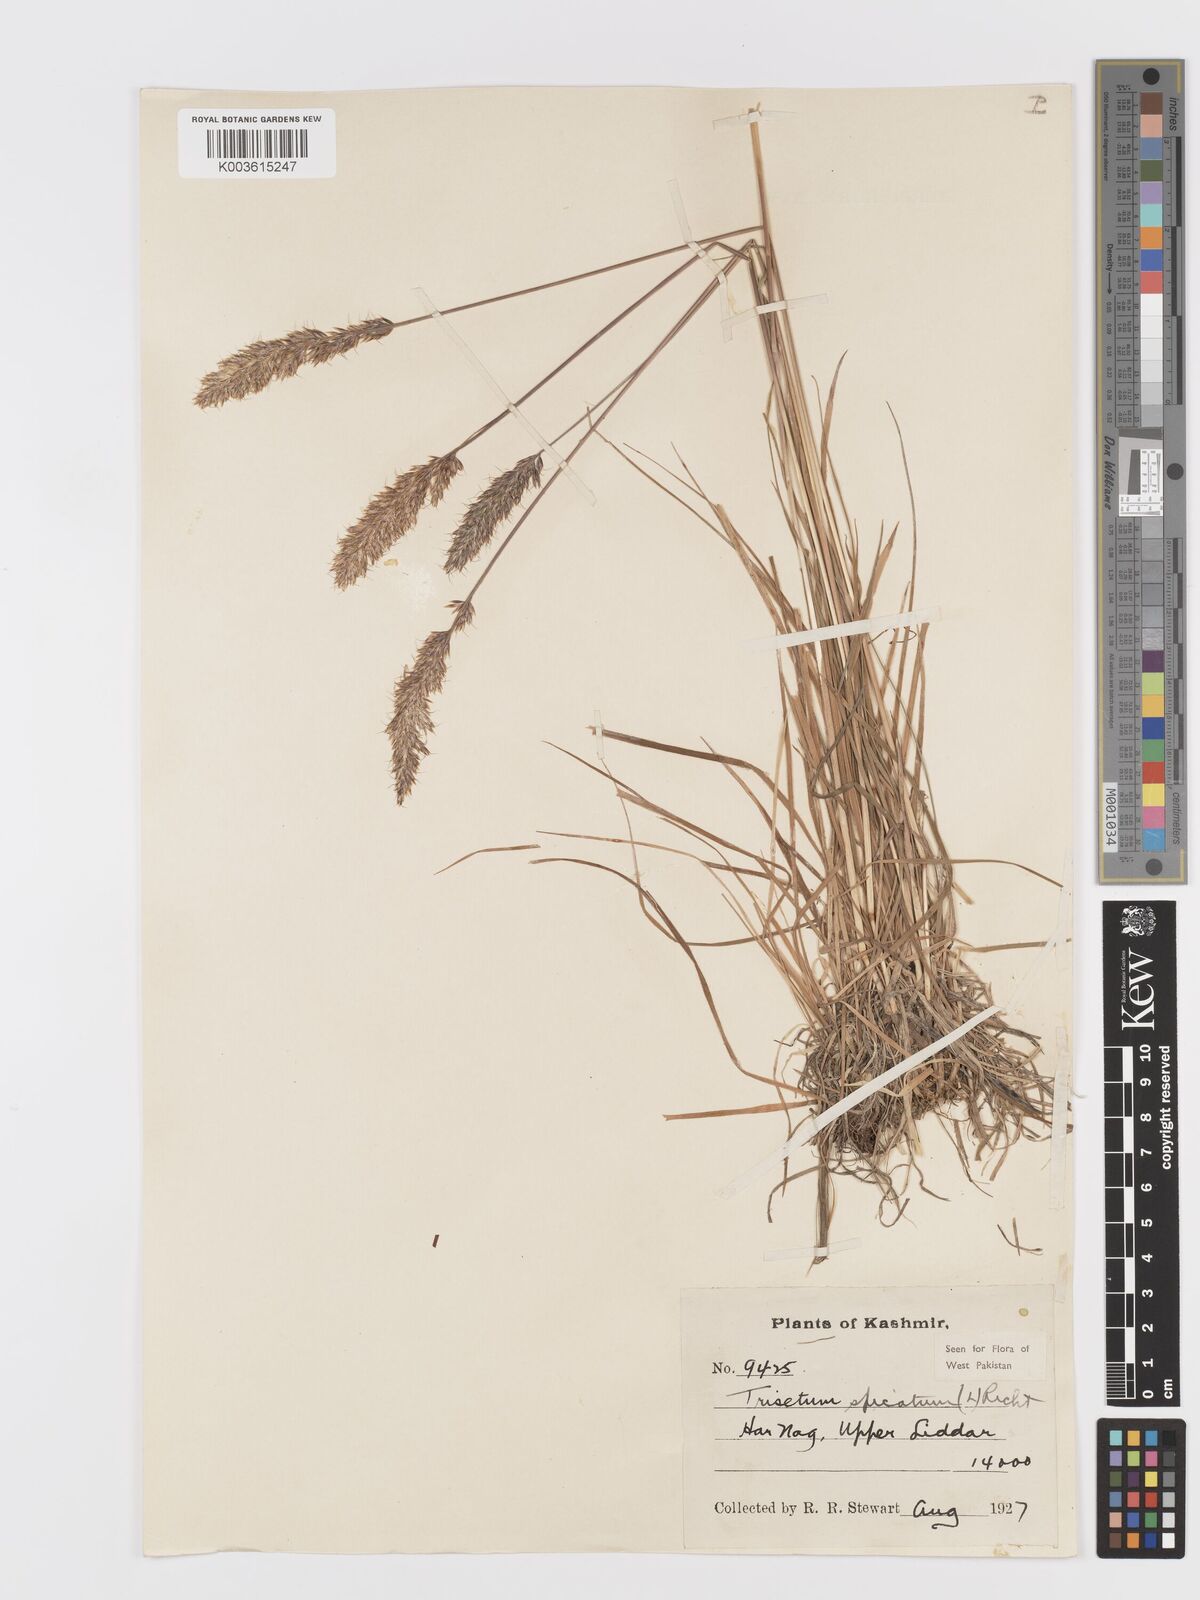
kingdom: Plantae
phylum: Tracheophyta
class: Liliopsida
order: Poales
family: Poaceae
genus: Koeleria
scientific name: Koeleria spicata
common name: Mountain trisetum
